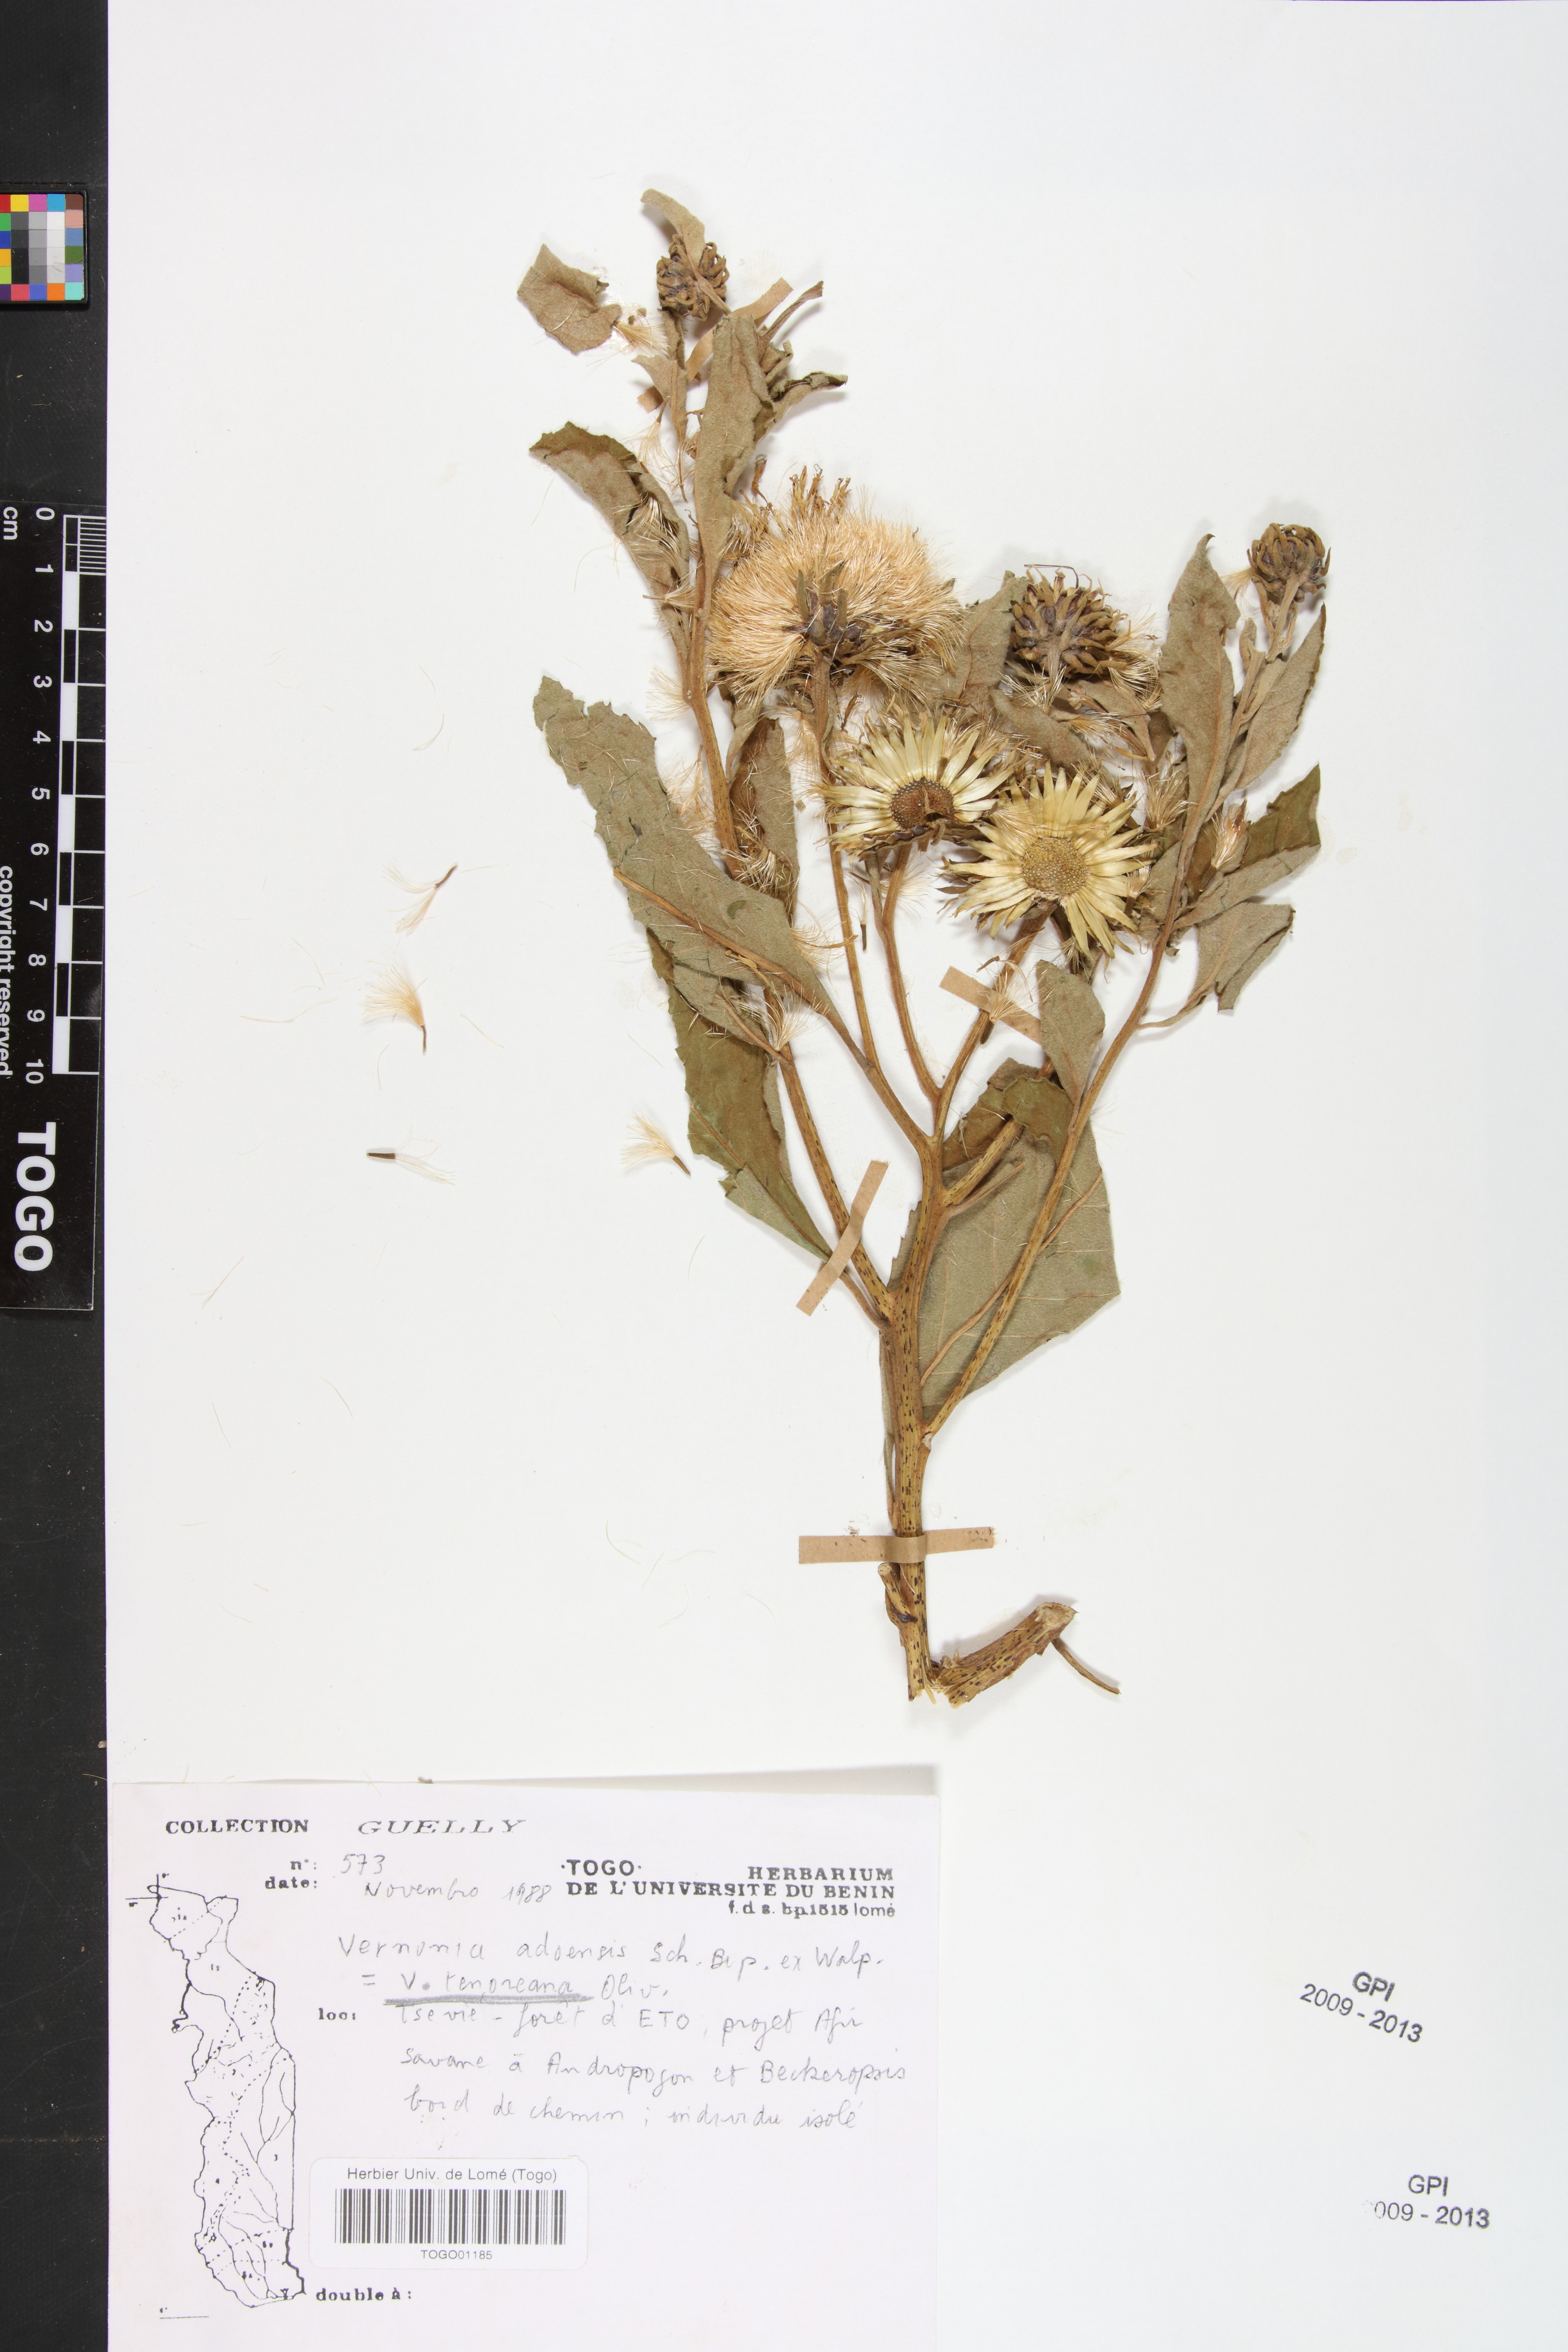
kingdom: Plantae
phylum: Tracheophyta
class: Magnoliopsida
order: Asterales
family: Asteraceae
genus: Baccharoides
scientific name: Baccharoides adoensis
